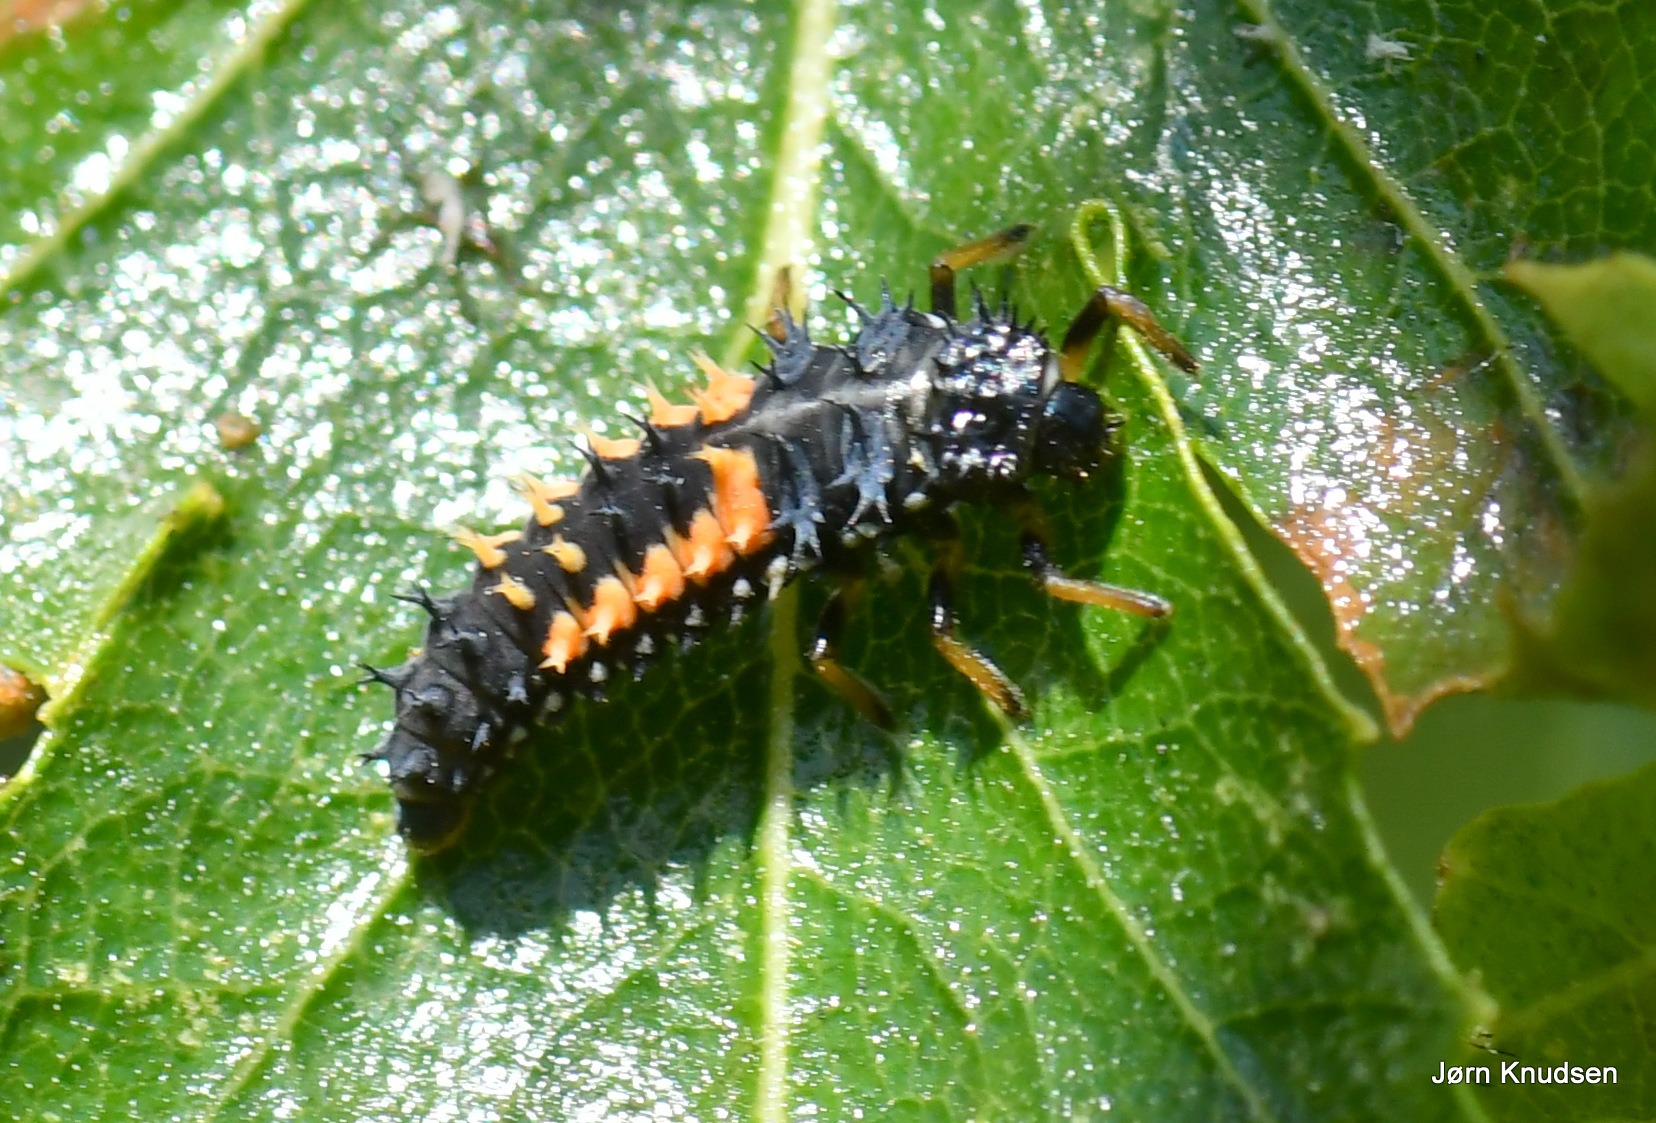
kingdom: Animalia
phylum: Arthropoda
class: Insecta
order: Coleoptera
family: Coccinellidae
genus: Harmonia
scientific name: Harmonia axyridis
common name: Harlekinmariehøne
